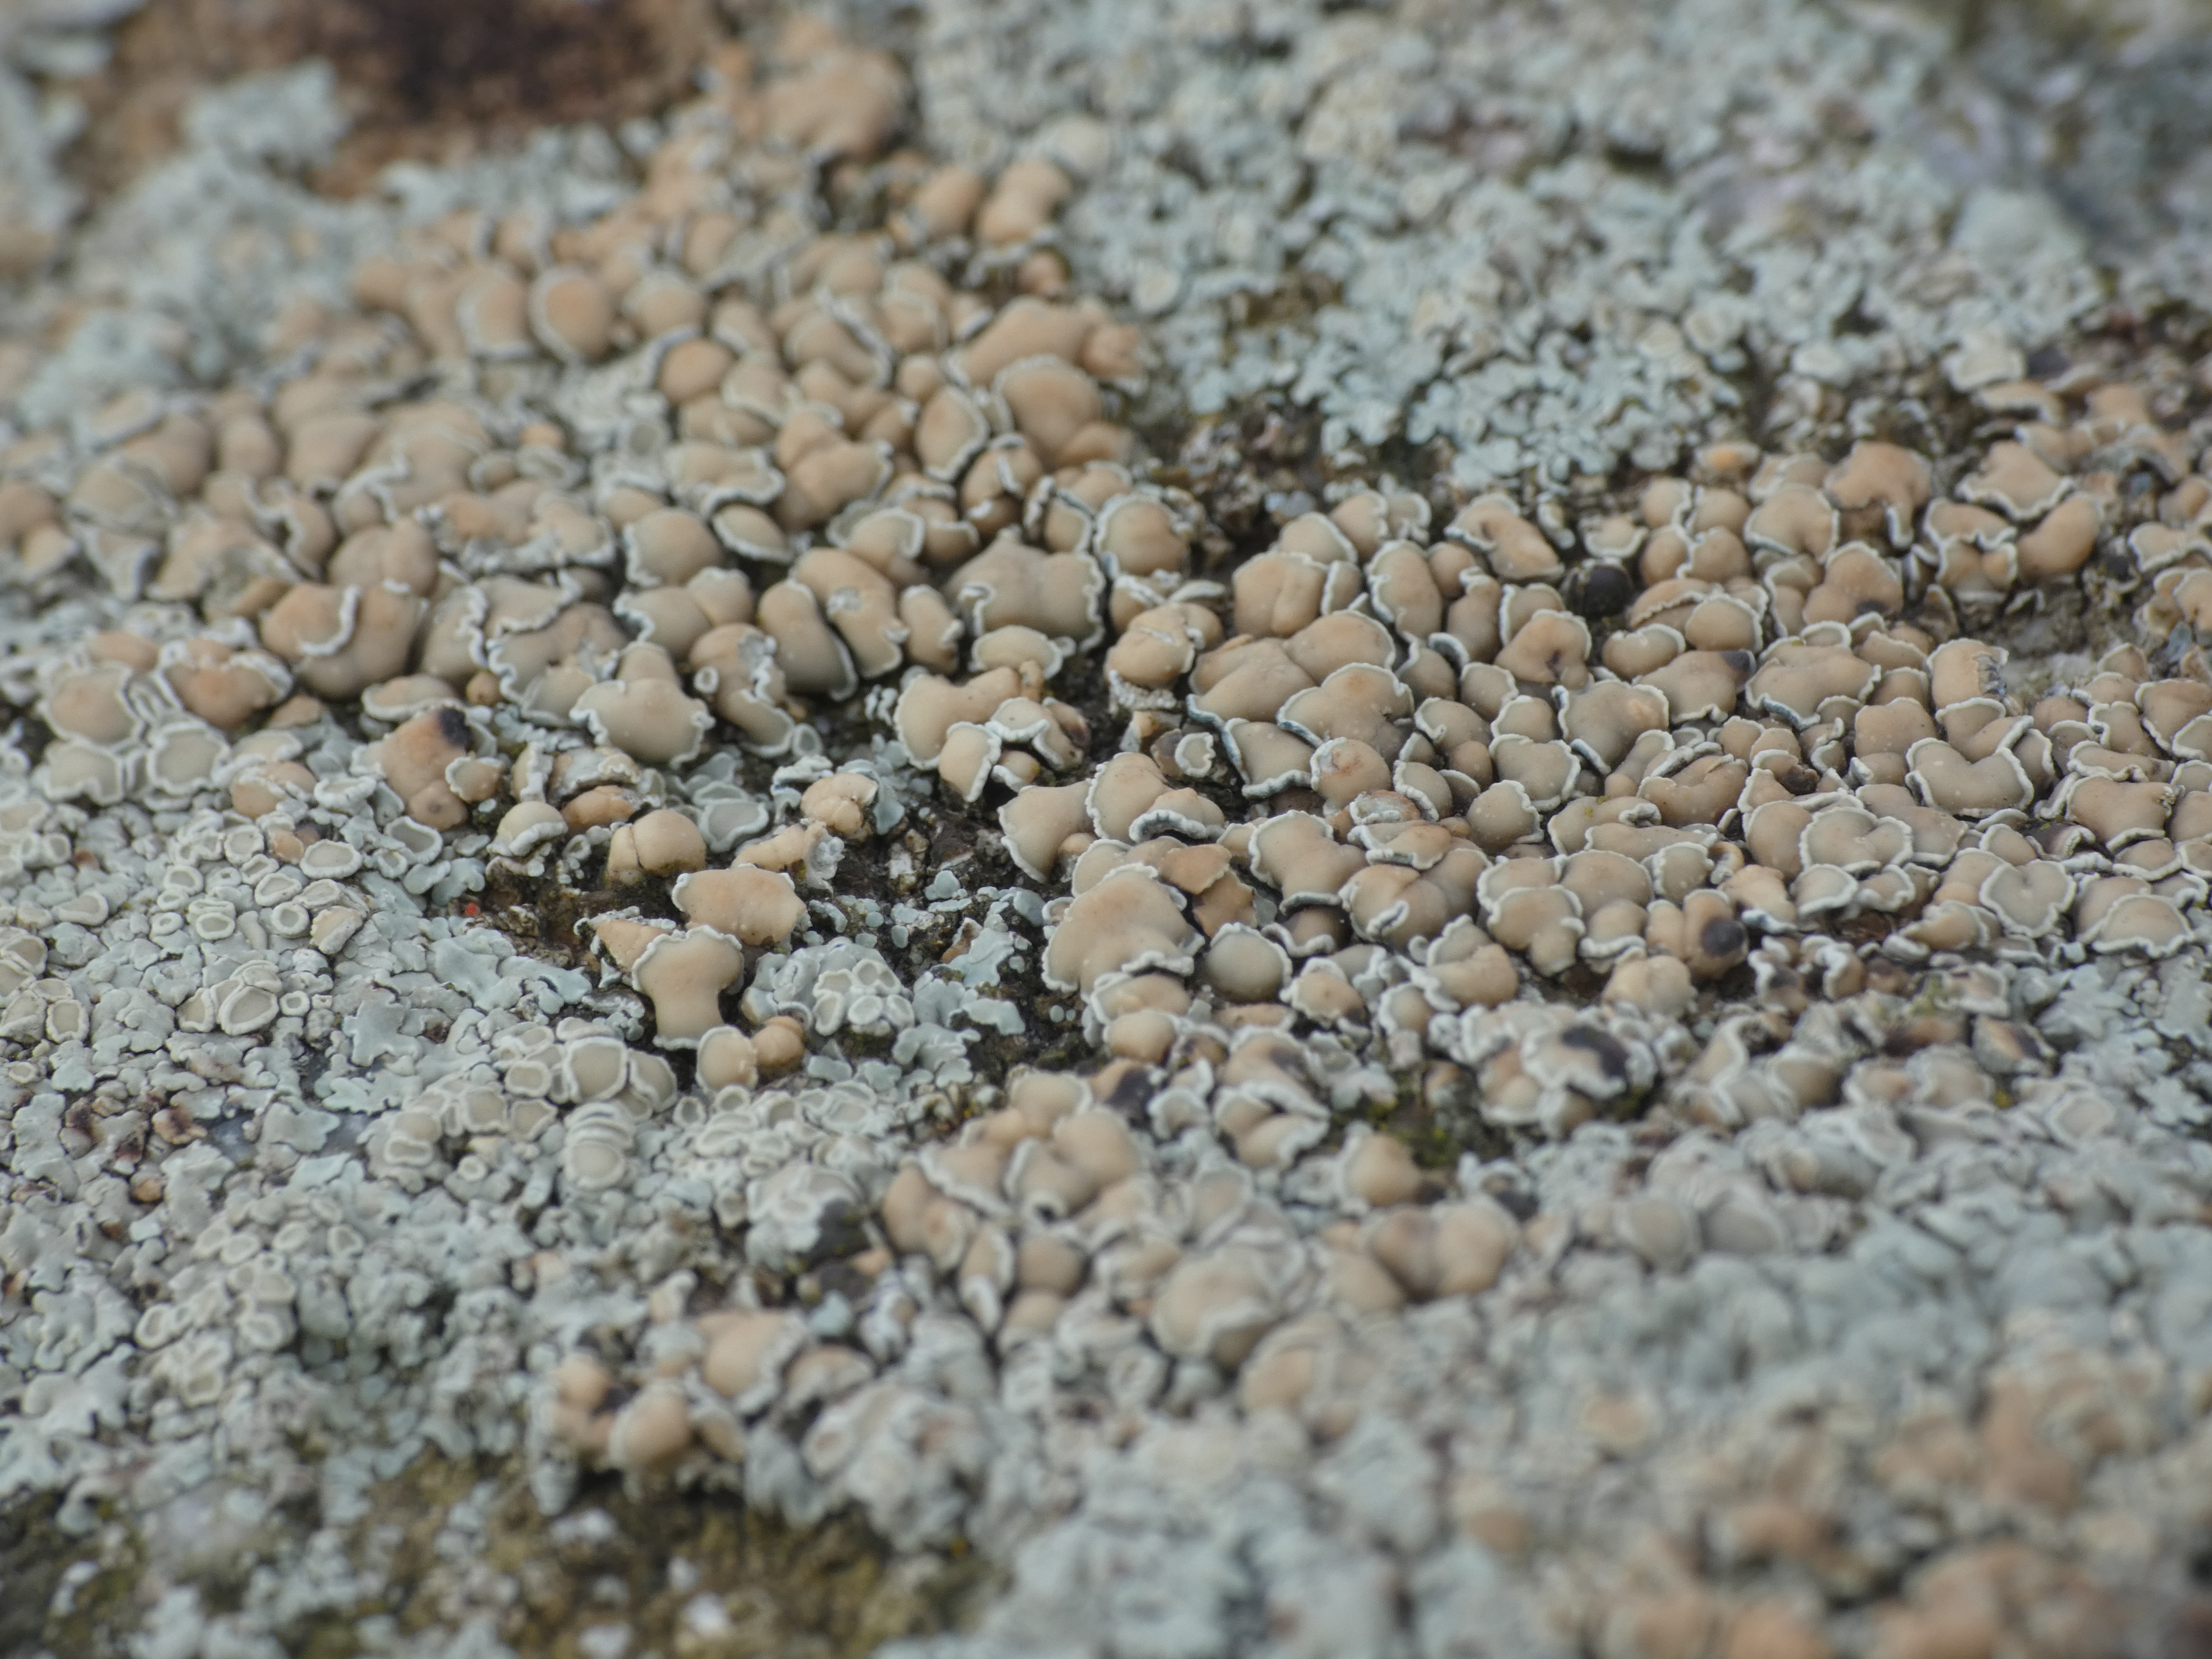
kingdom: Fungi
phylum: Ascomycota
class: Lecanoromycetes
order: Lecanorales
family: Lecanoraceae
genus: Protoparmeliopsis
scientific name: Protoparmeliopsis muralis
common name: Randfliget kantskivelav
